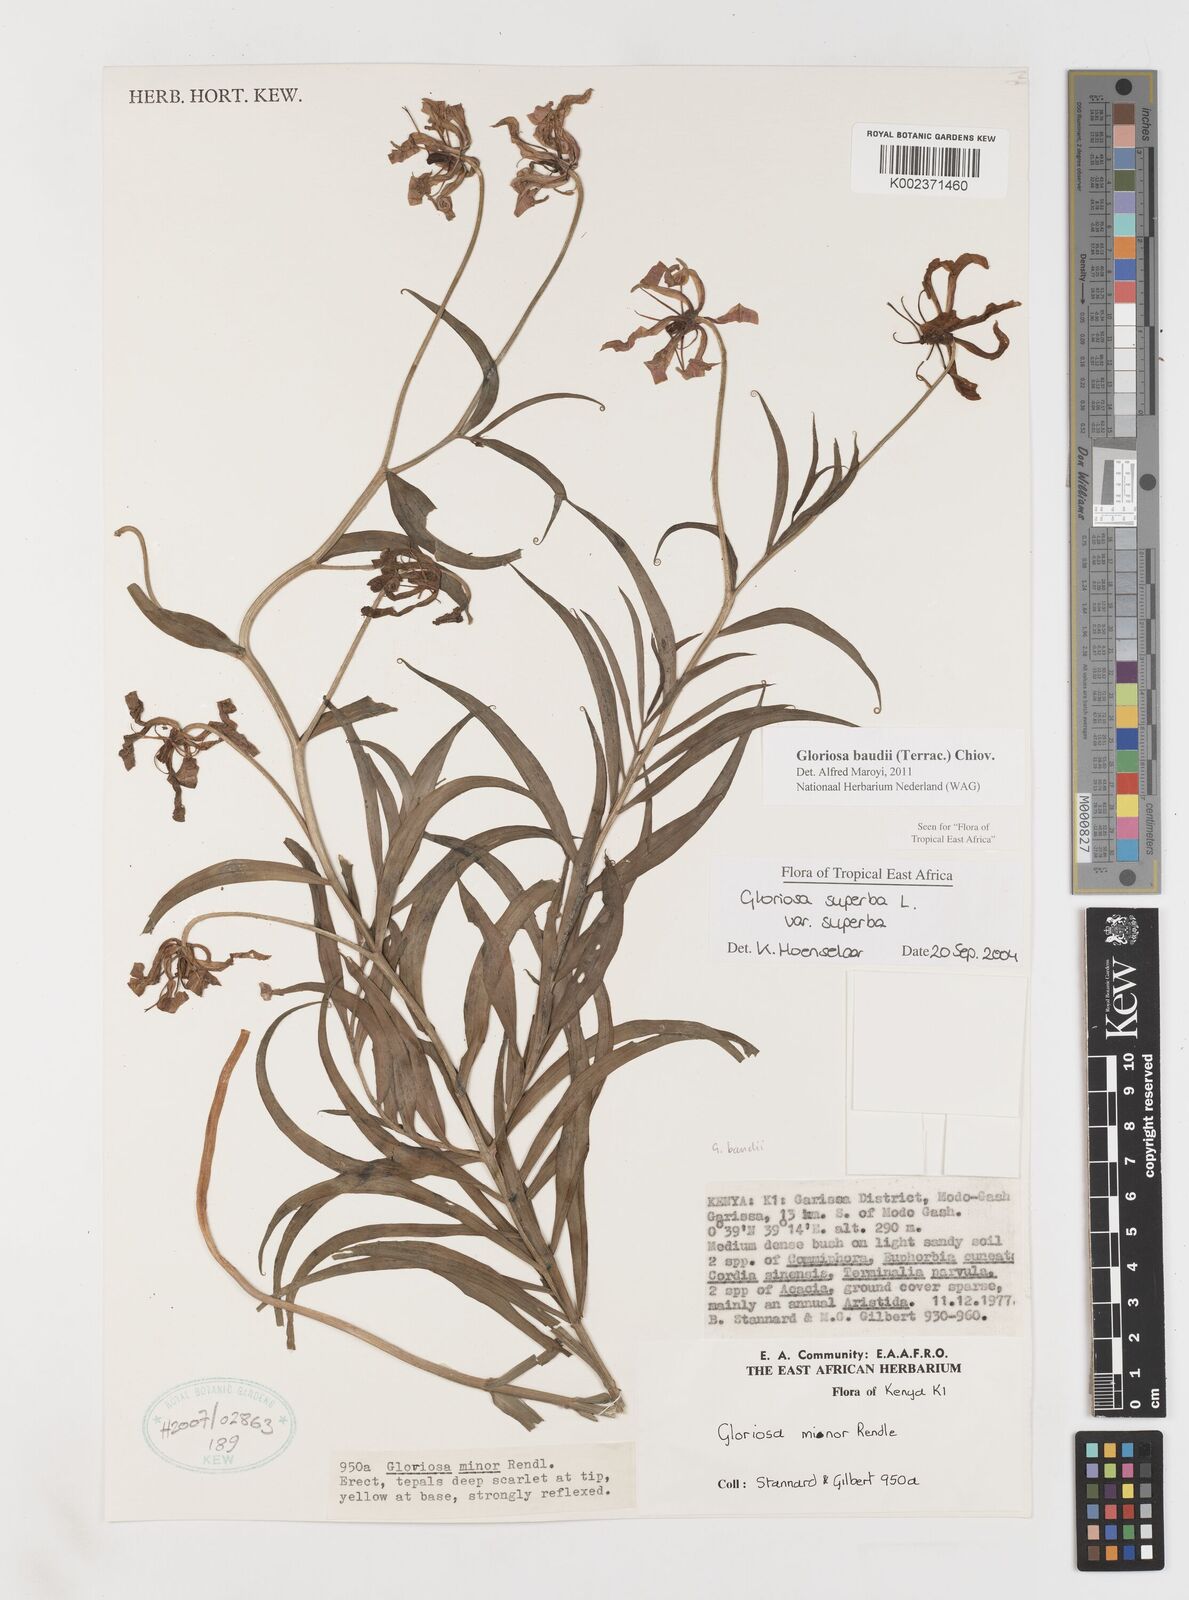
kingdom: Plantae
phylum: Tracheophyta
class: Liliopsida
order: Liliales
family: Colchicaceae
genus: Gloriosa
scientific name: Gloriosa baudii
